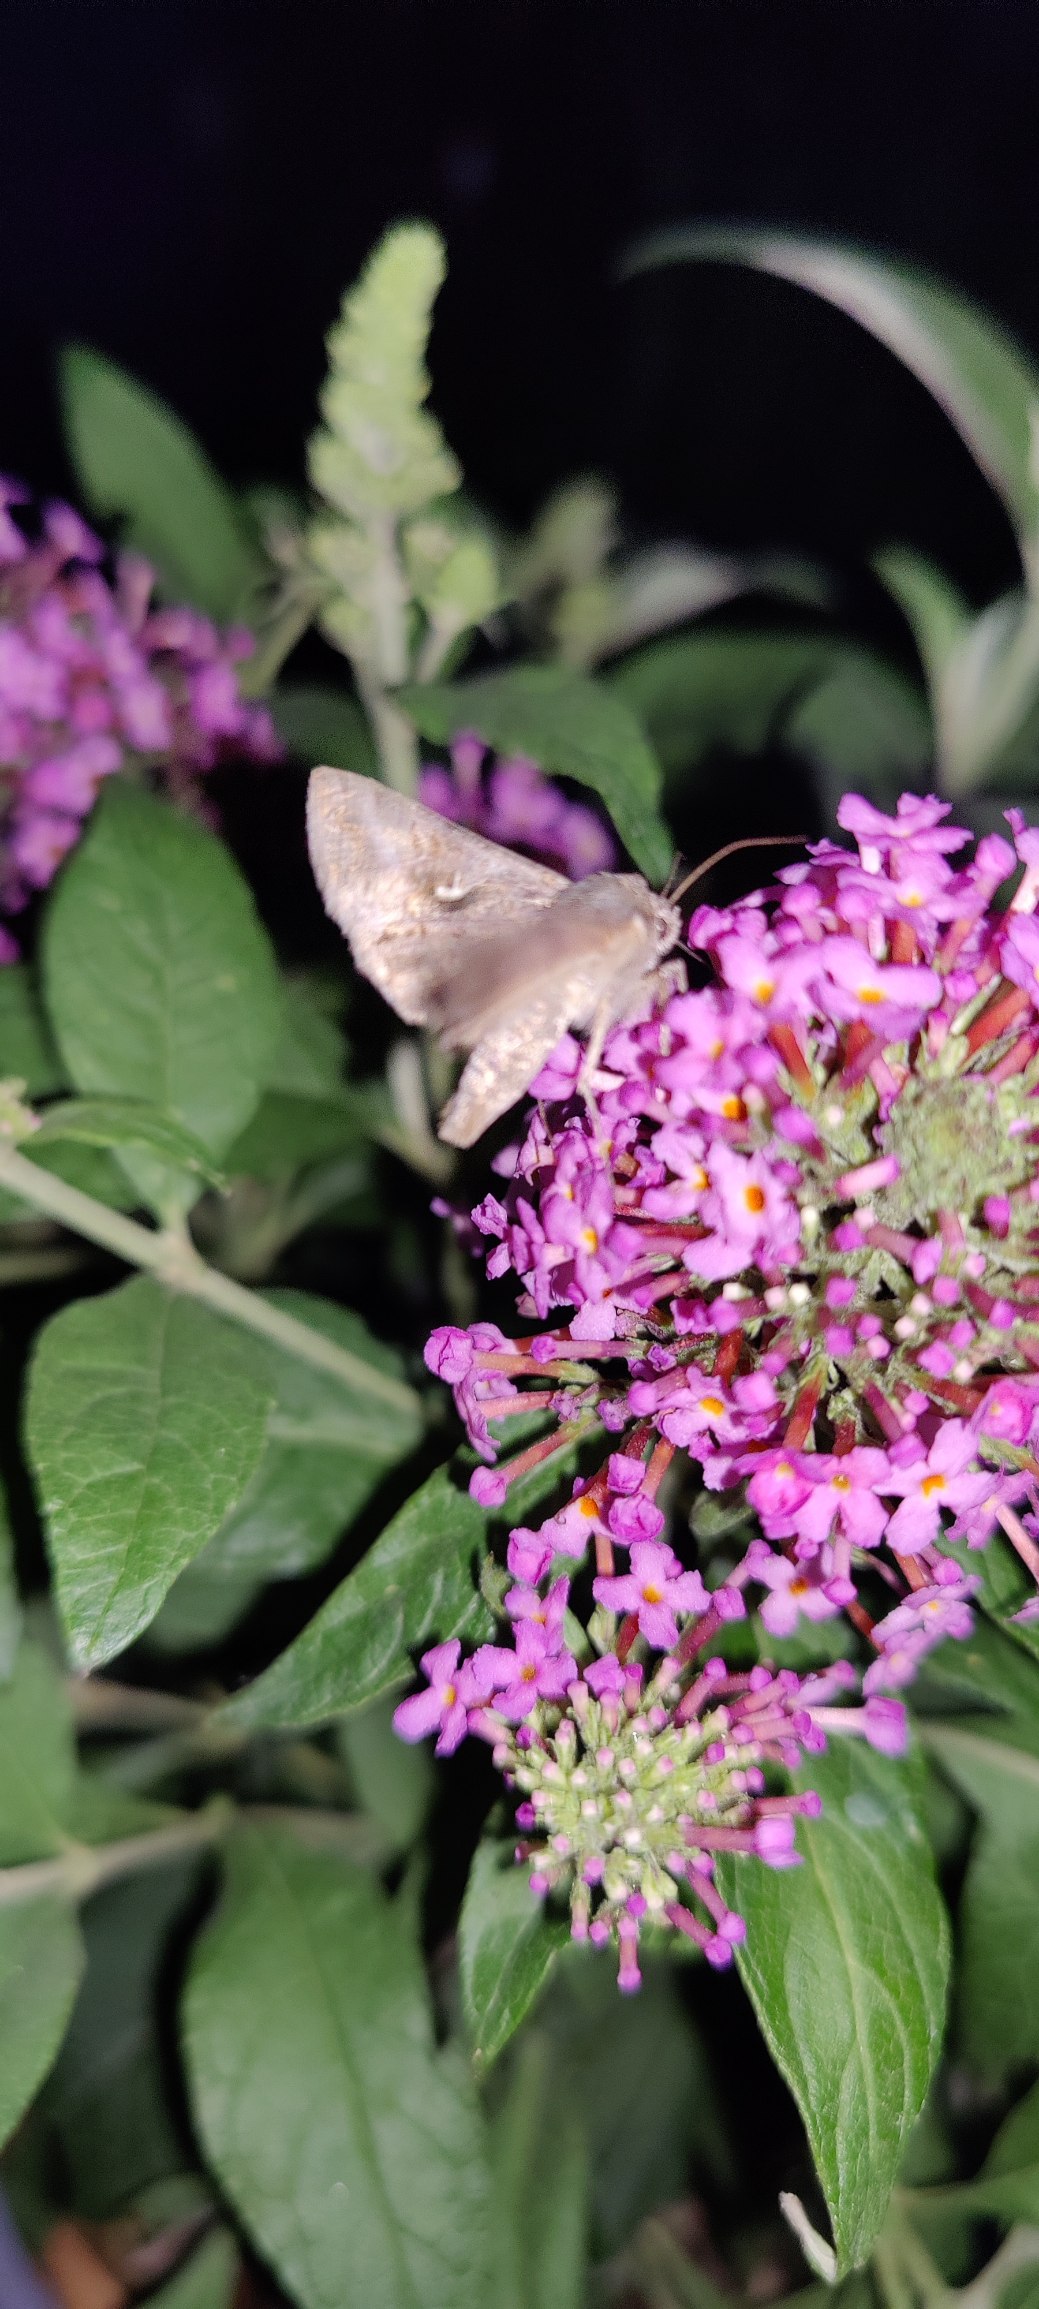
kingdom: Animalia
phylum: Arthropoda
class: Insecta
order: Lepidoptera
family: Noctuidae
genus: Autographa
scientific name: Autographa gamma
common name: Gammaugle
